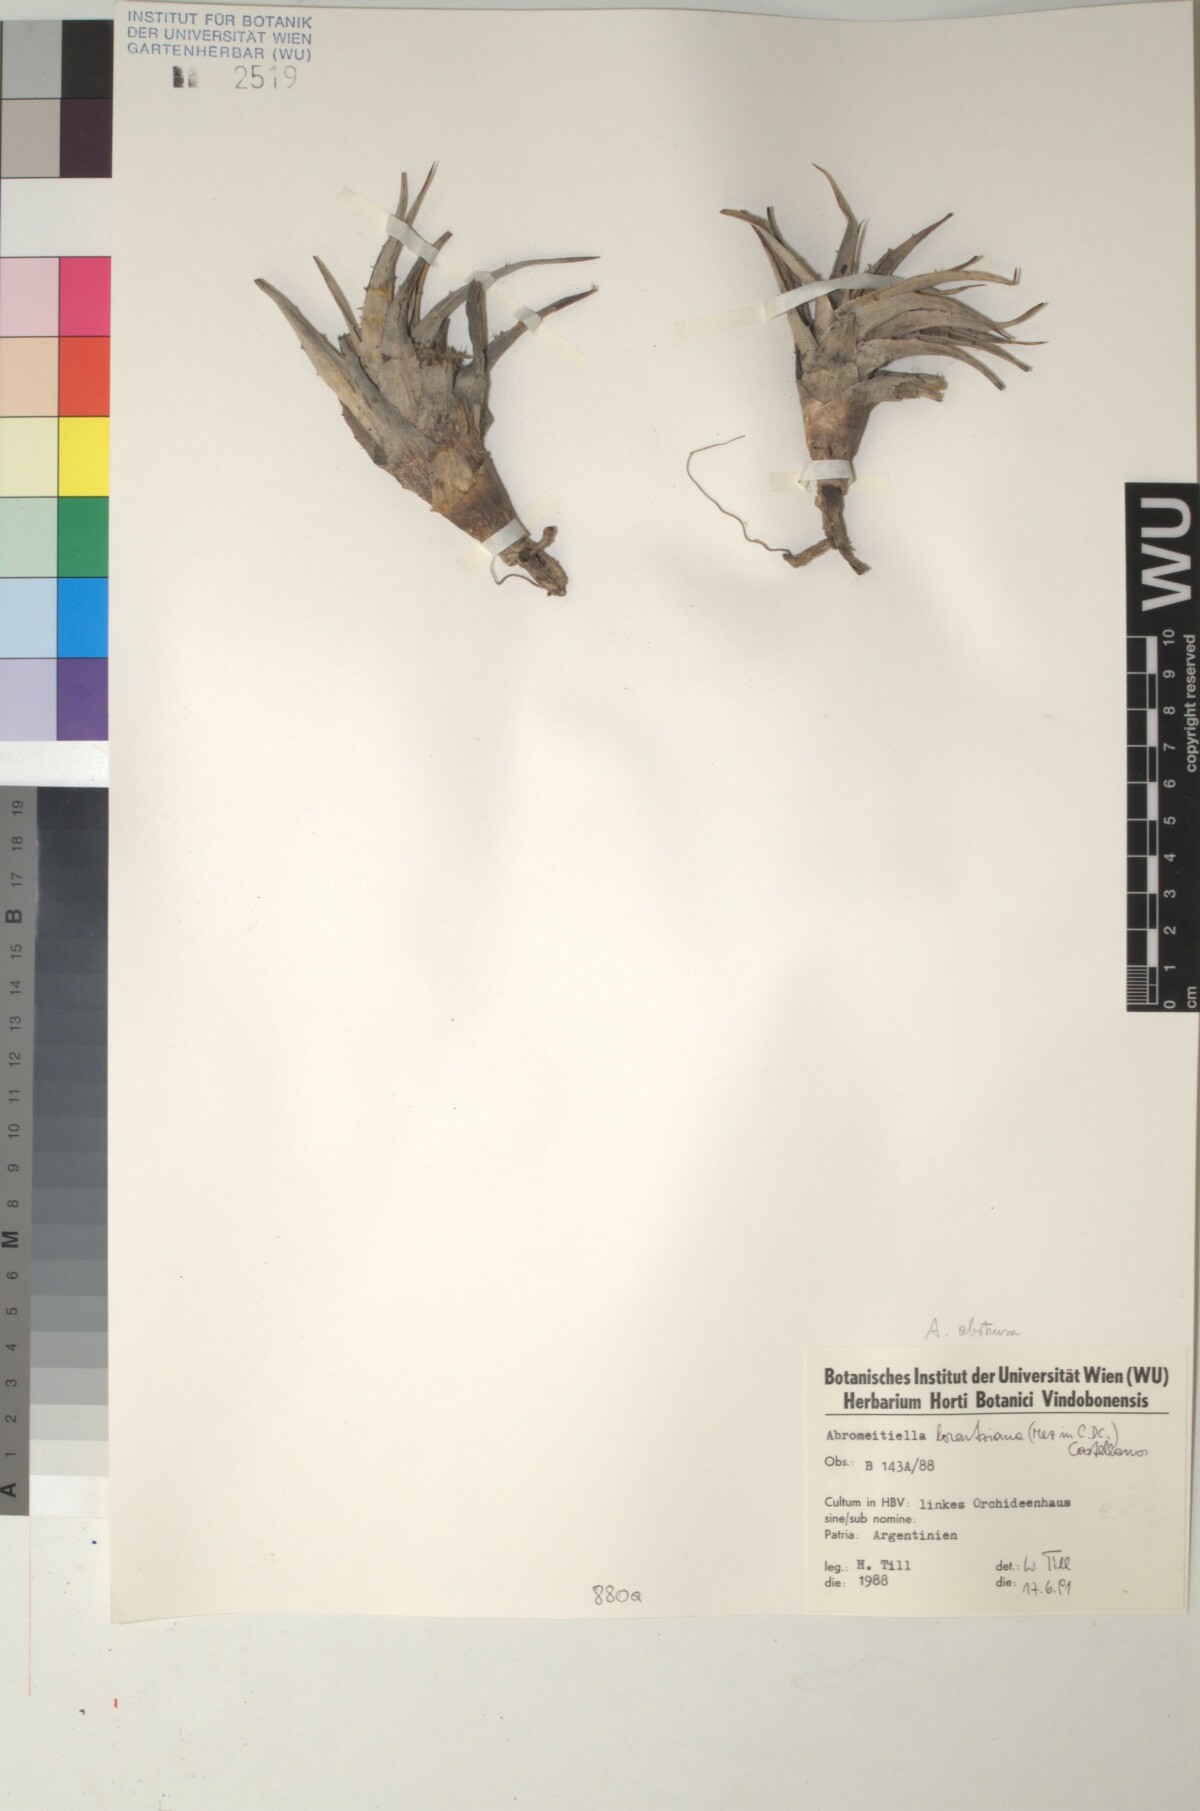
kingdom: Plantae
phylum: Tracheophyta
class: Liliopsida
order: Poales
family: Bromeliaceae
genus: Deuterocohnia
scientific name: Deuterocohnia brevifolia
